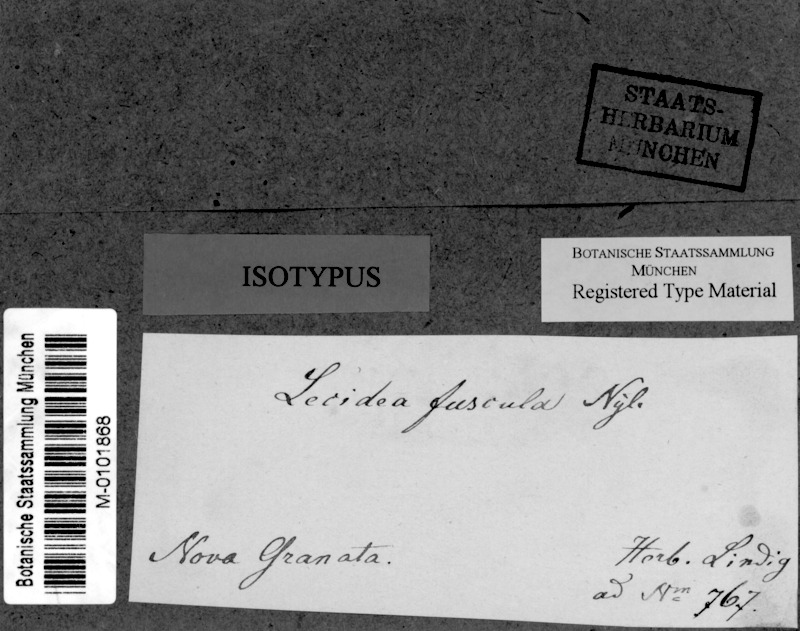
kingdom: Fungi
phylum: Ascomycota
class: Lecanoromycetes
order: Lecanorales
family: Malmideaceae
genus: Sprucidea
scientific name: Sprucidea fuscula
